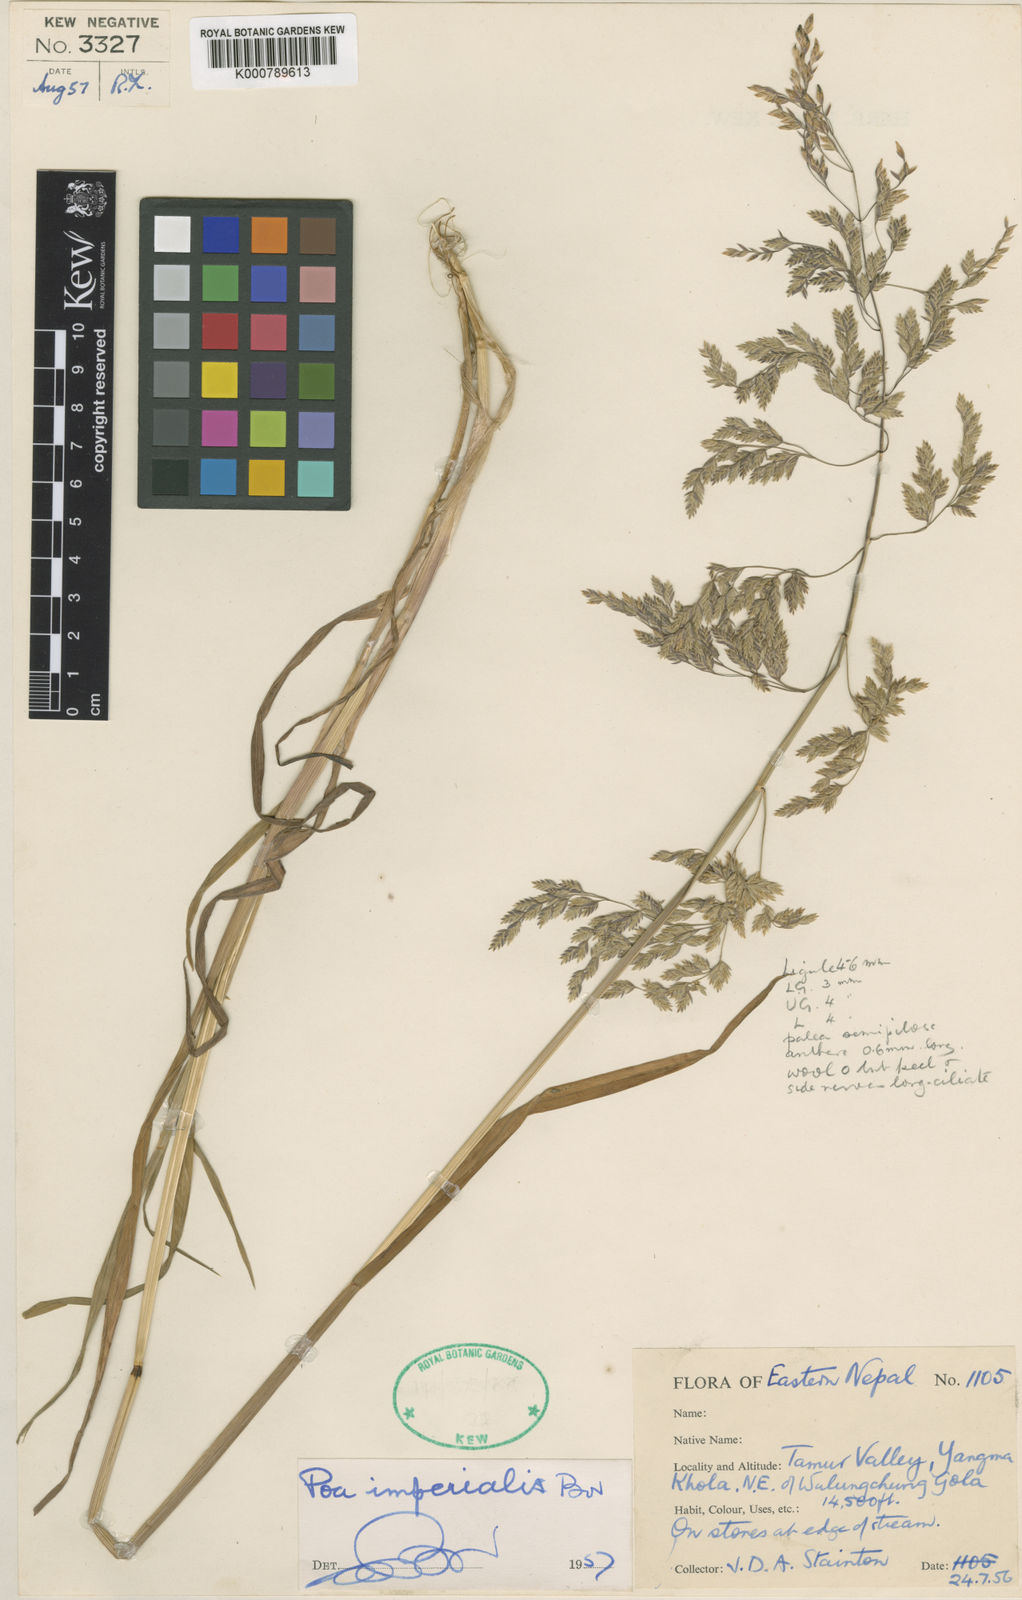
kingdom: Plantae
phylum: Tracheophyta
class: Liliopsida
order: Poales
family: Poaceae
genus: Poa
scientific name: Poa imperialis
